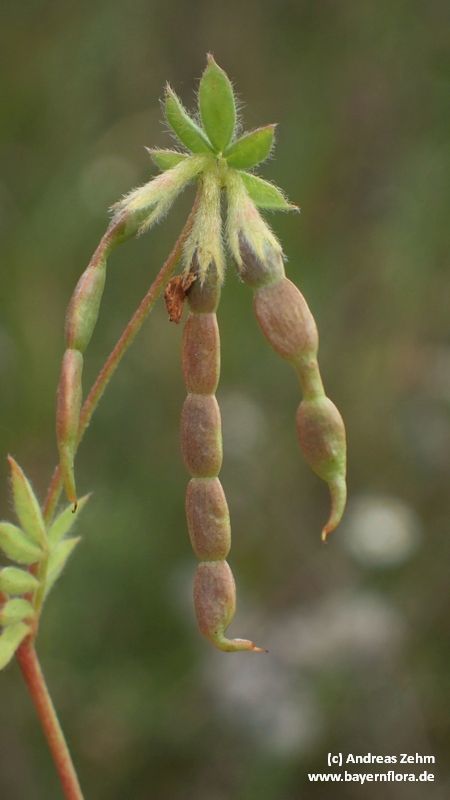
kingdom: Plantae
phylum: Tracheophyta
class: Magnoliopsida
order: Fabales
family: Fabaceae
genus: Ornithopus
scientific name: Ornithopus sativus
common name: Serradella
